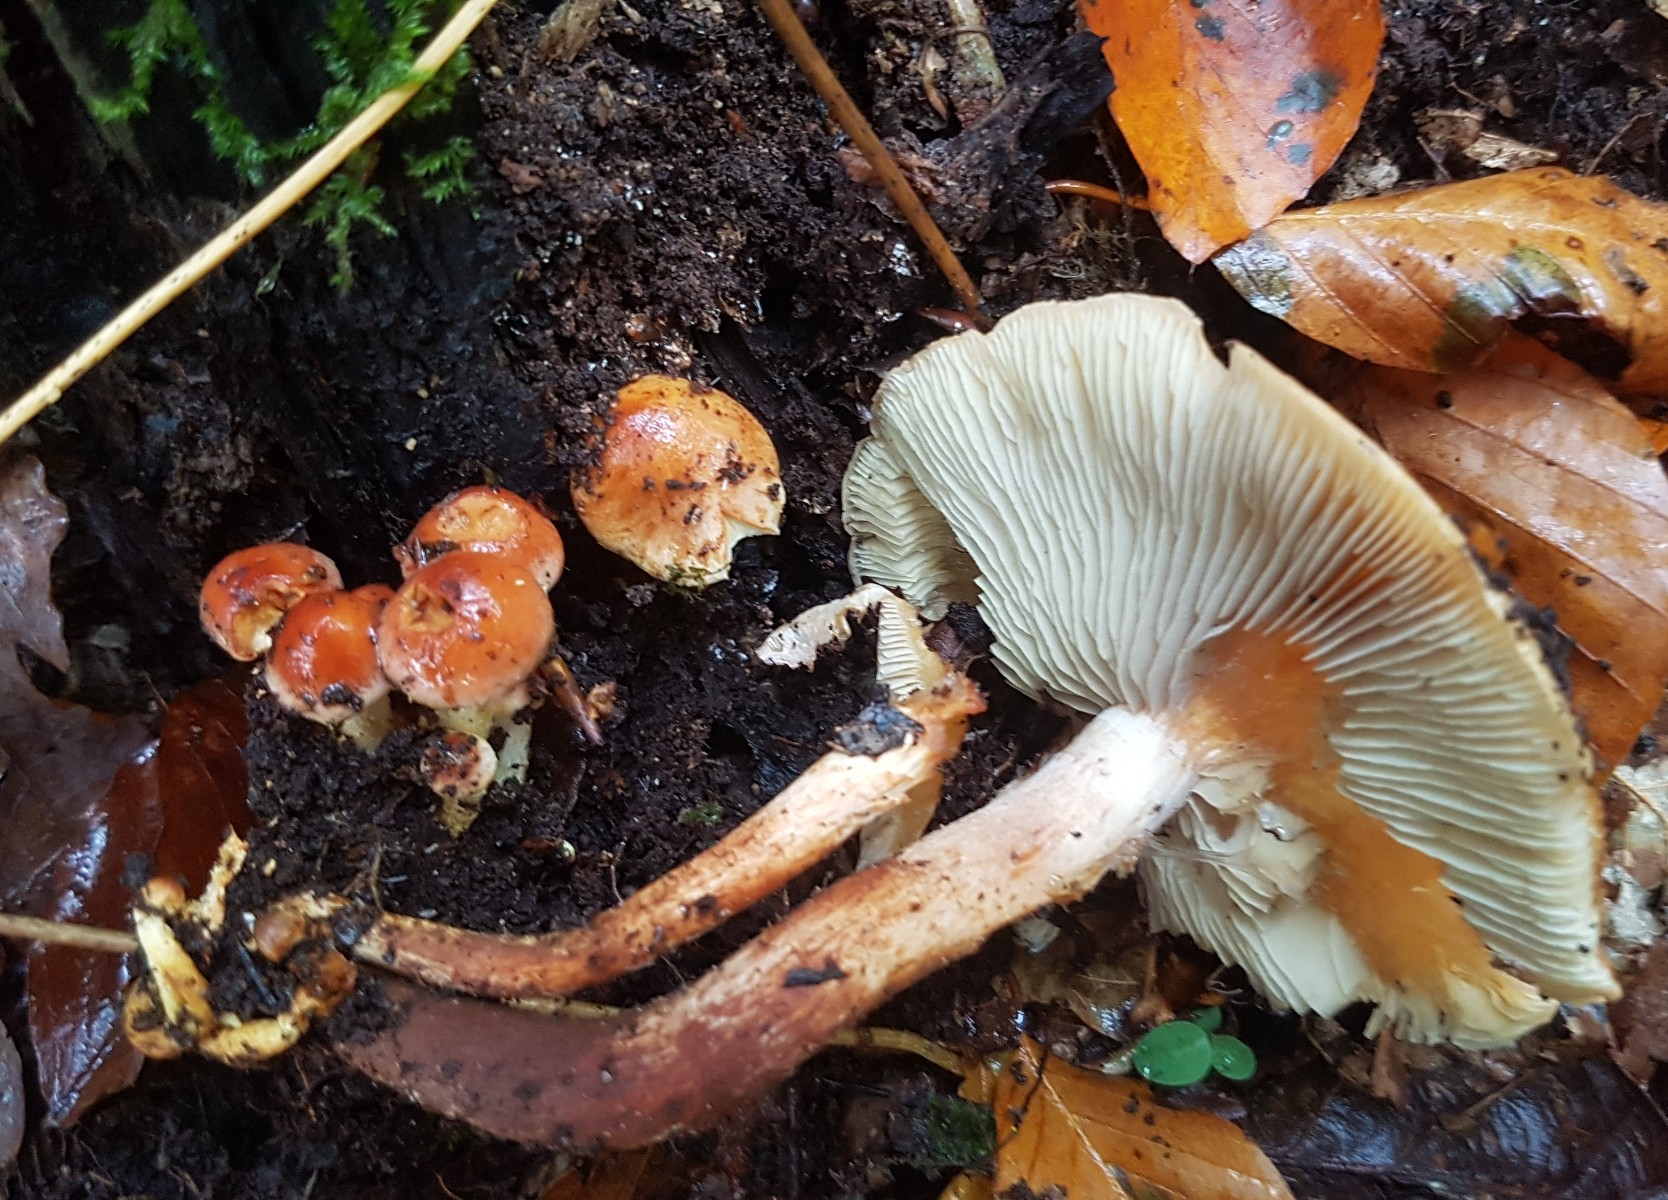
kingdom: Fungi
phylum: Basidiomycota
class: Agaricomycetes
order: Agaricales
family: Strophariaceae
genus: Hypholoma
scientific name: Hypholoma lateritium
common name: teglrød svovlhat
